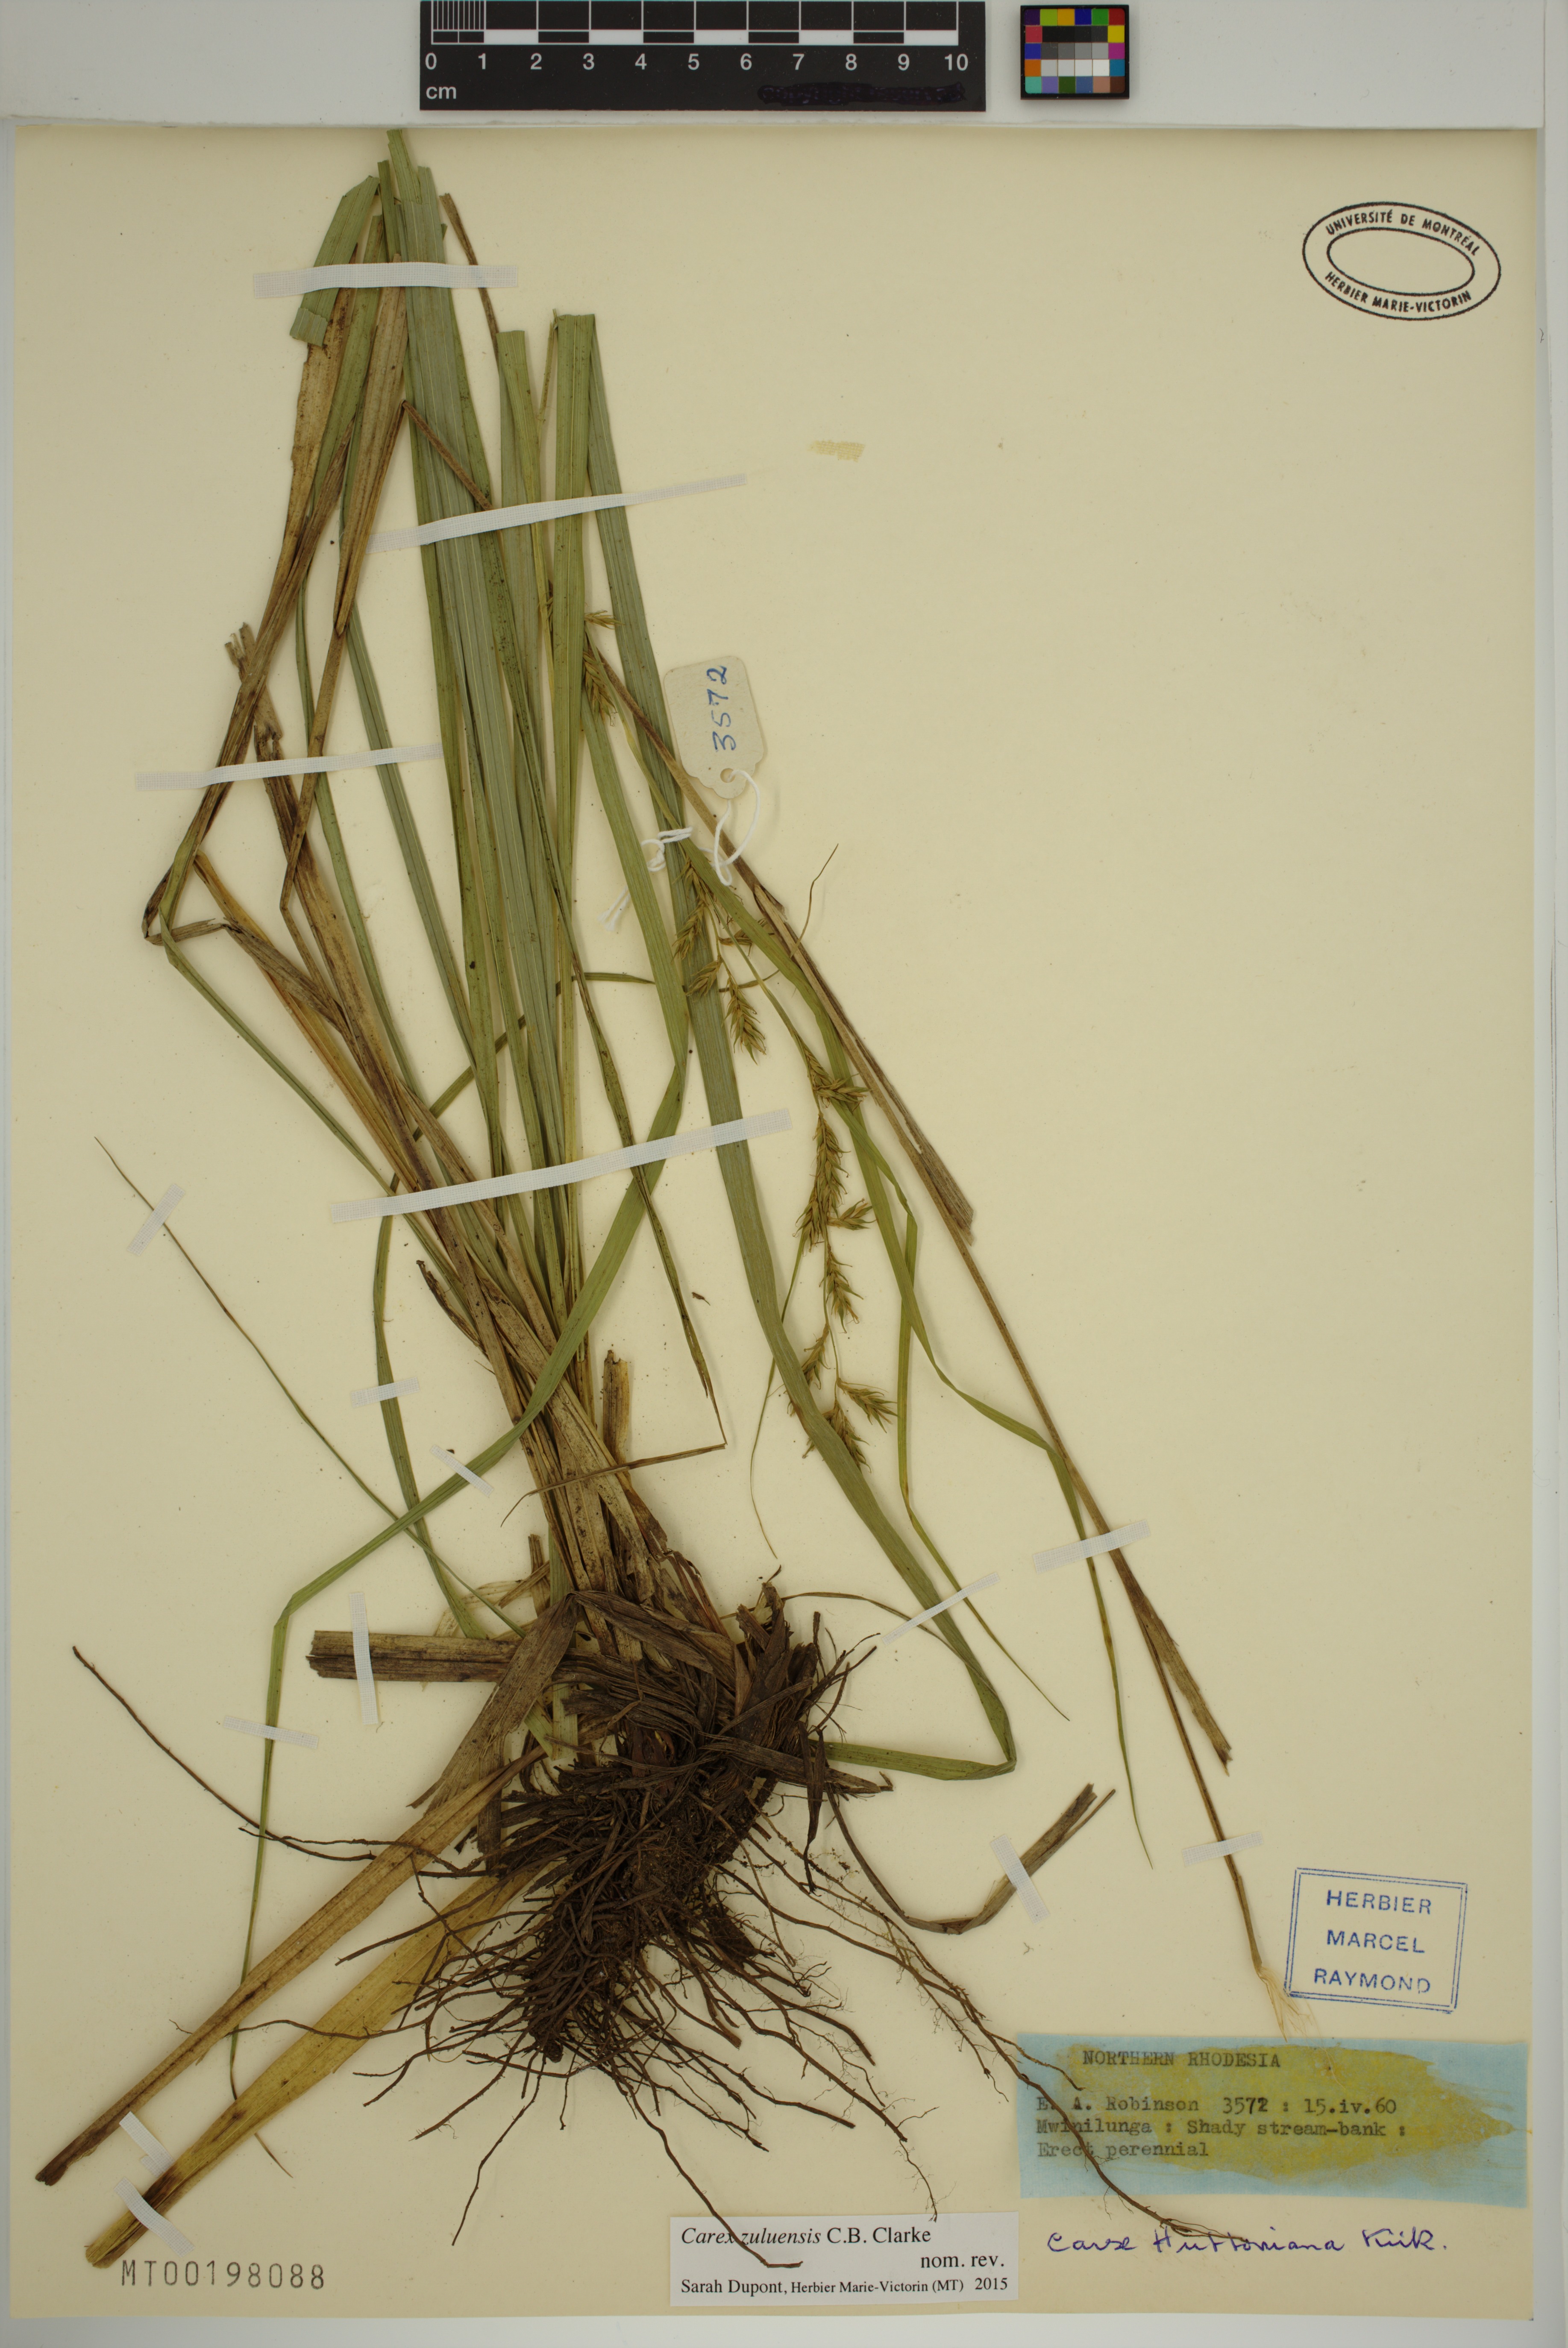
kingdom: Plantae
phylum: Tracheophyta
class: Liliopsida
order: Poales
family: Cyperaceae
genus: Carex
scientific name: Carex steudneri
